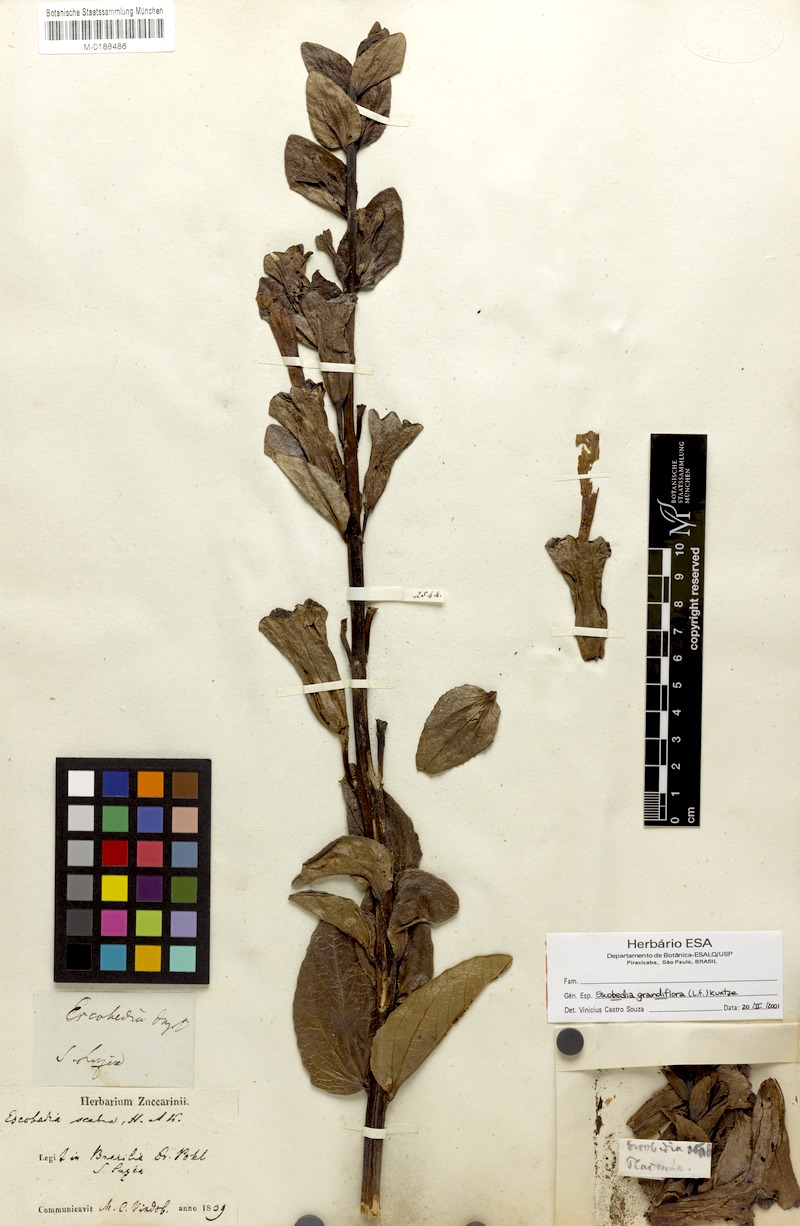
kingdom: Plantae
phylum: Tracheophyta
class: Magnoliopsida
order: Lamiales
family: Orobanchaceae
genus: Escobedia
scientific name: Escobedia grandiflora
